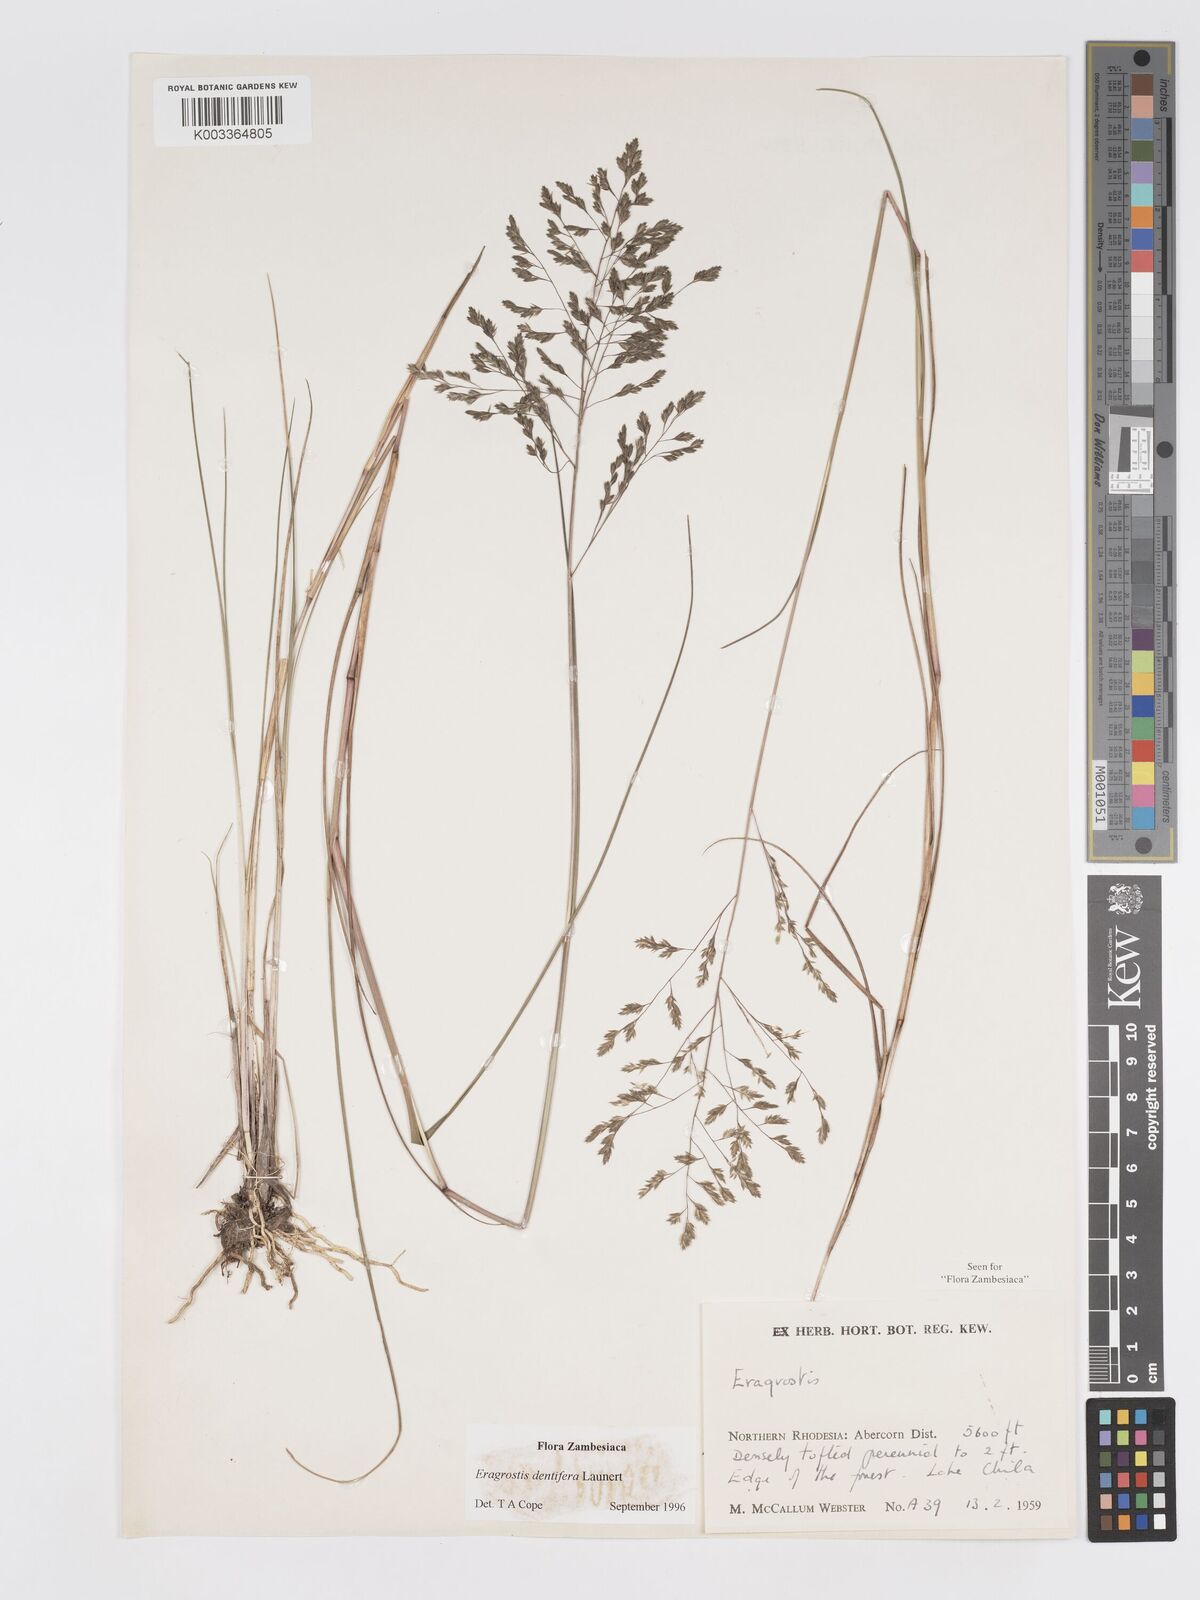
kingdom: Plantae
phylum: Tracheophyta
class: Liliopsida
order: Poales
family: Poaceae
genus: Eragrostis
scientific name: Eragrostis dentifera
